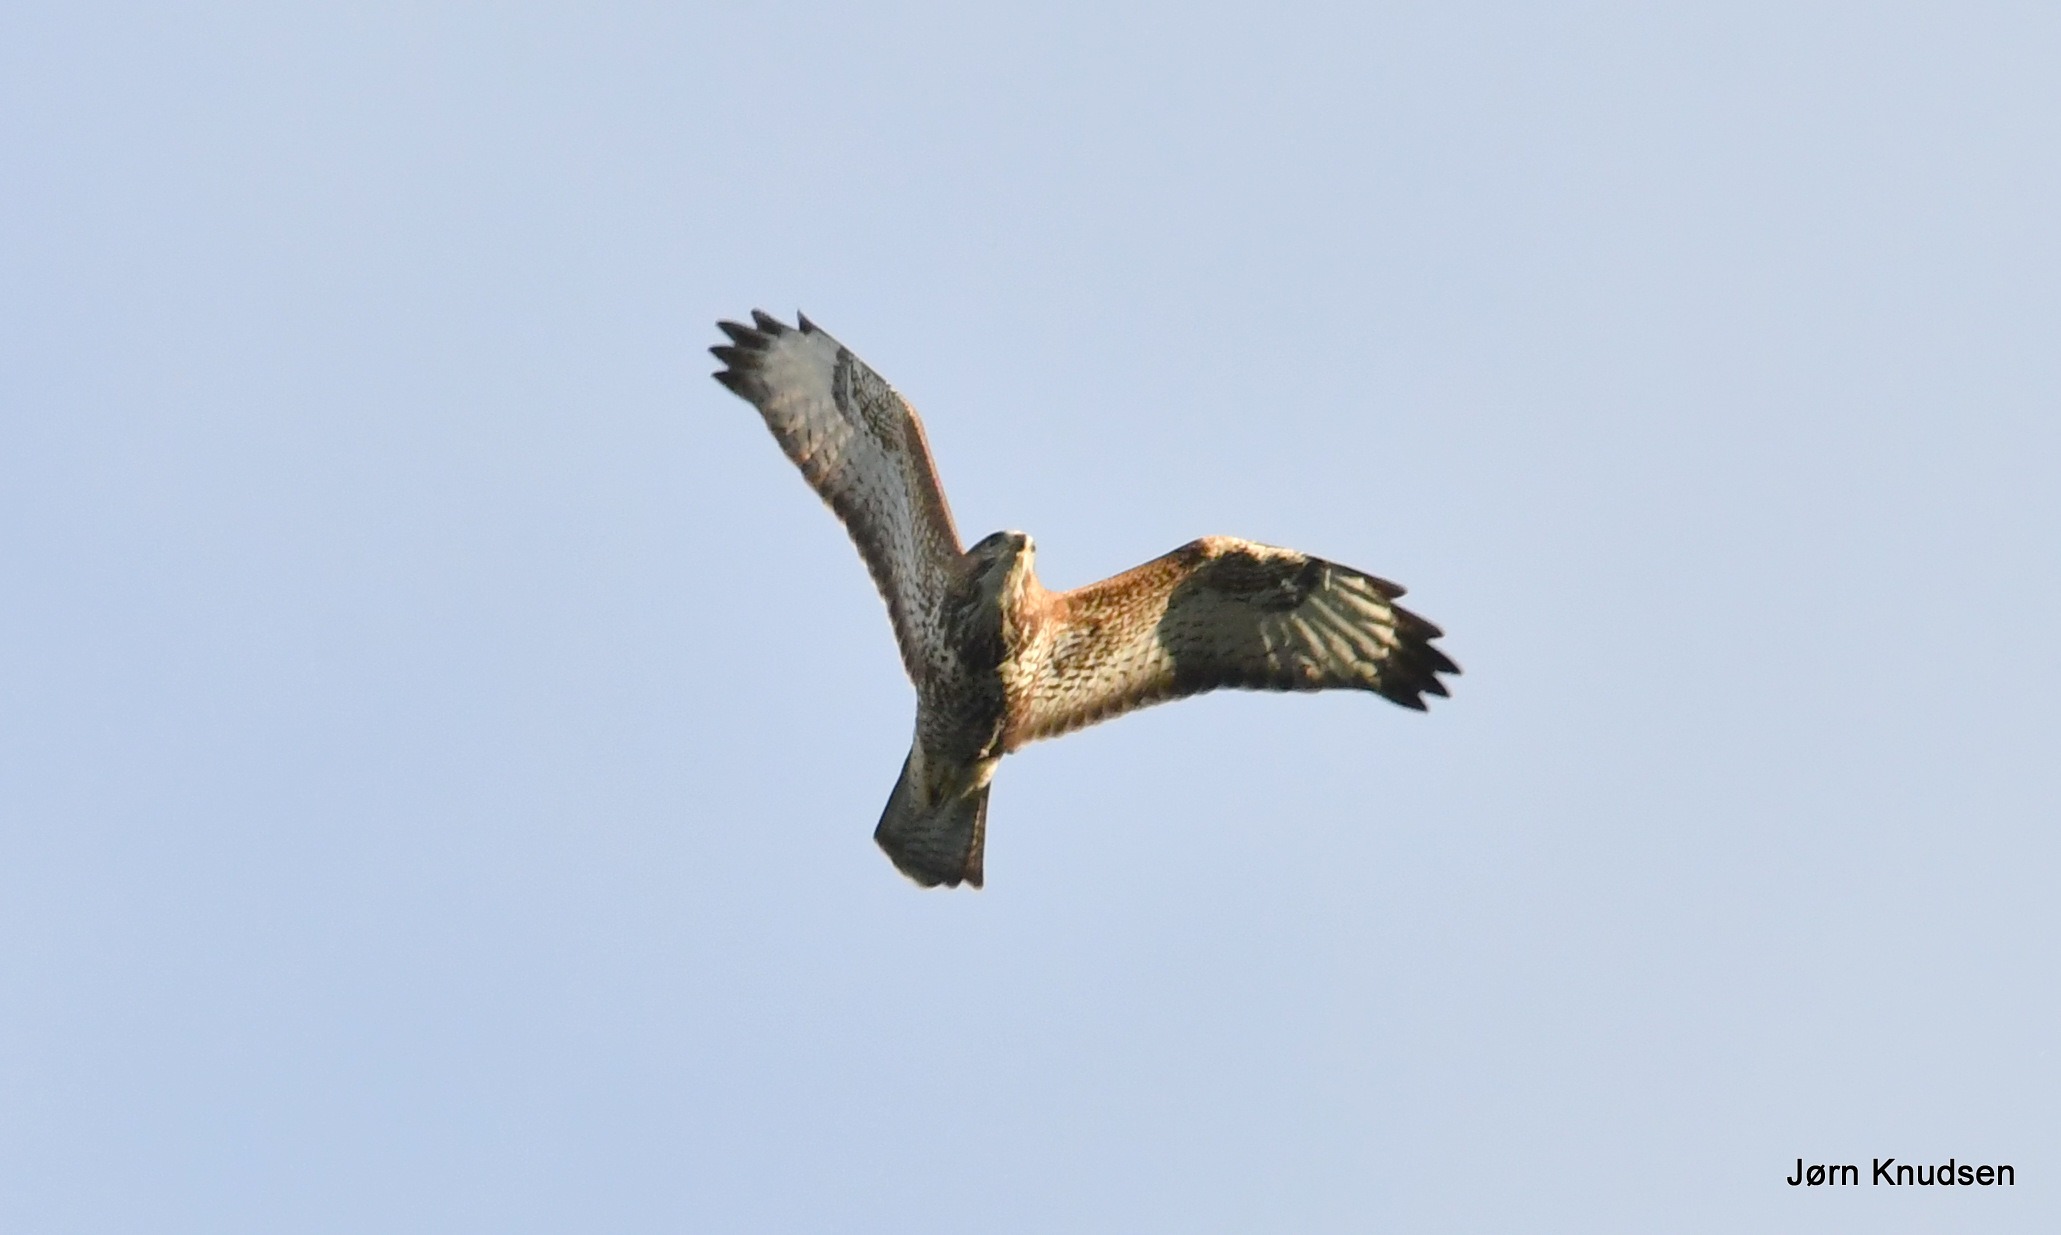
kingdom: Animalia
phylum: Chordata
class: Aves
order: Accipitriformes
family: Accipitridae
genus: Buteo
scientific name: Buteo buteo
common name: Musvåge
